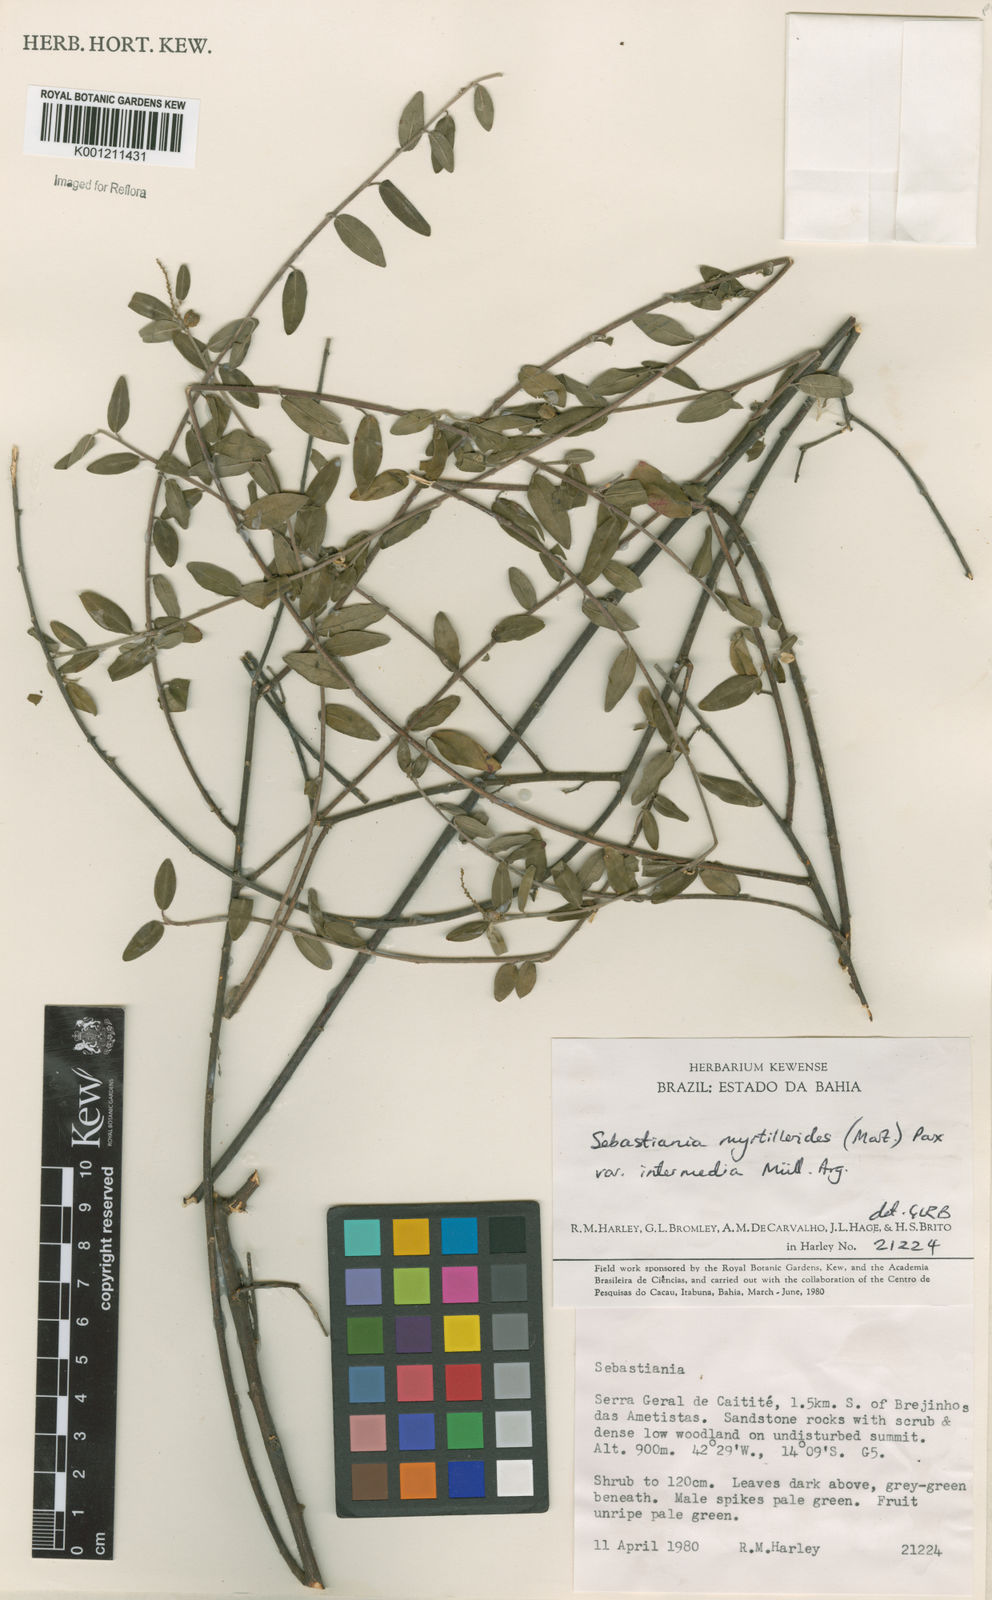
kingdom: Plantae
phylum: Tracheophyta
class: Magnoliopsida
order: Malpighiales
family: Euphorbiaceae
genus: Microstachys
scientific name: Microstachys
